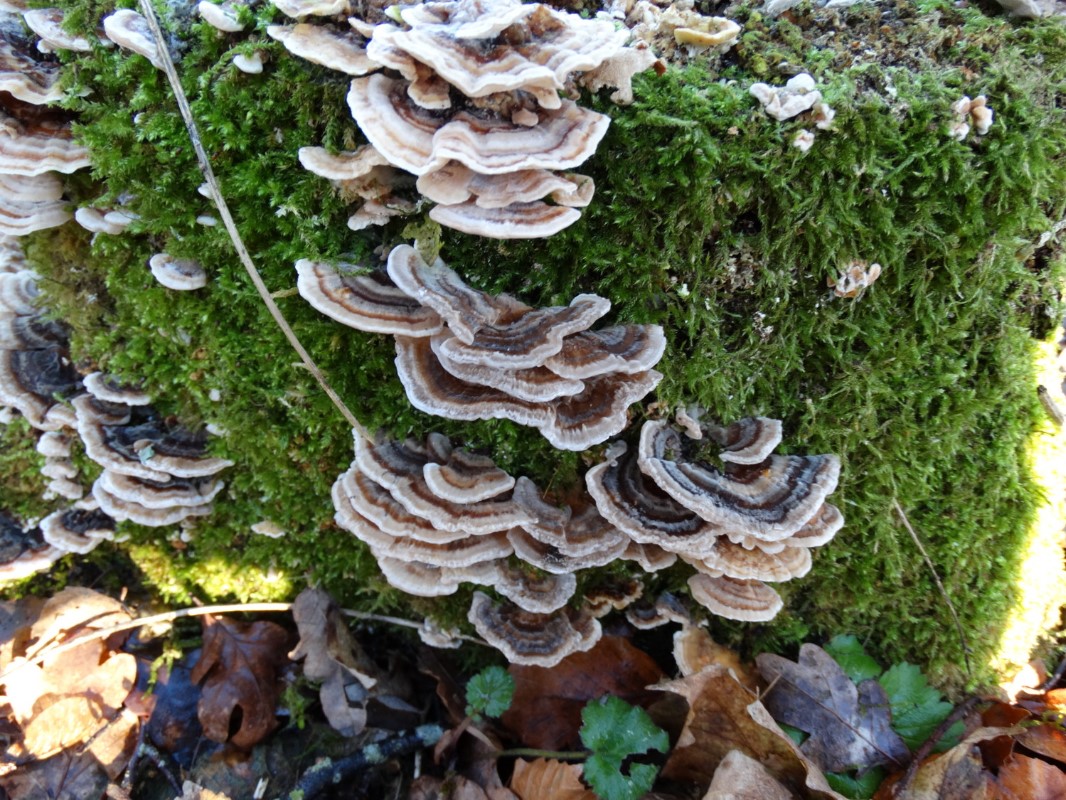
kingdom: Fungi
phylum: Basidiomycota
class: Agaricomycetes
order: Polyporales
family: Polyporaceae
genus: Trametes
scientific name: Trametes versicolor
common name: broget læderporesvamp
